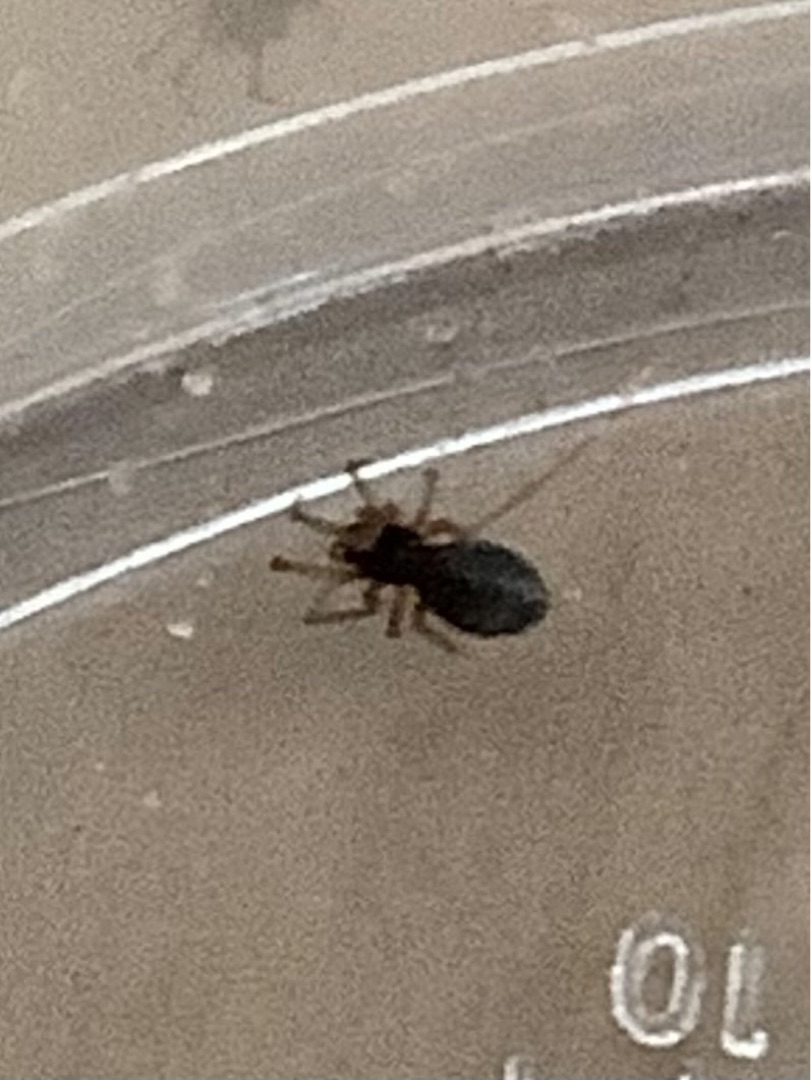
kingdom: Animalia
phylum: Arthropoda
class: Arachnida
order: Araneae
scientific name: Araneae
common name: Edderkopper
